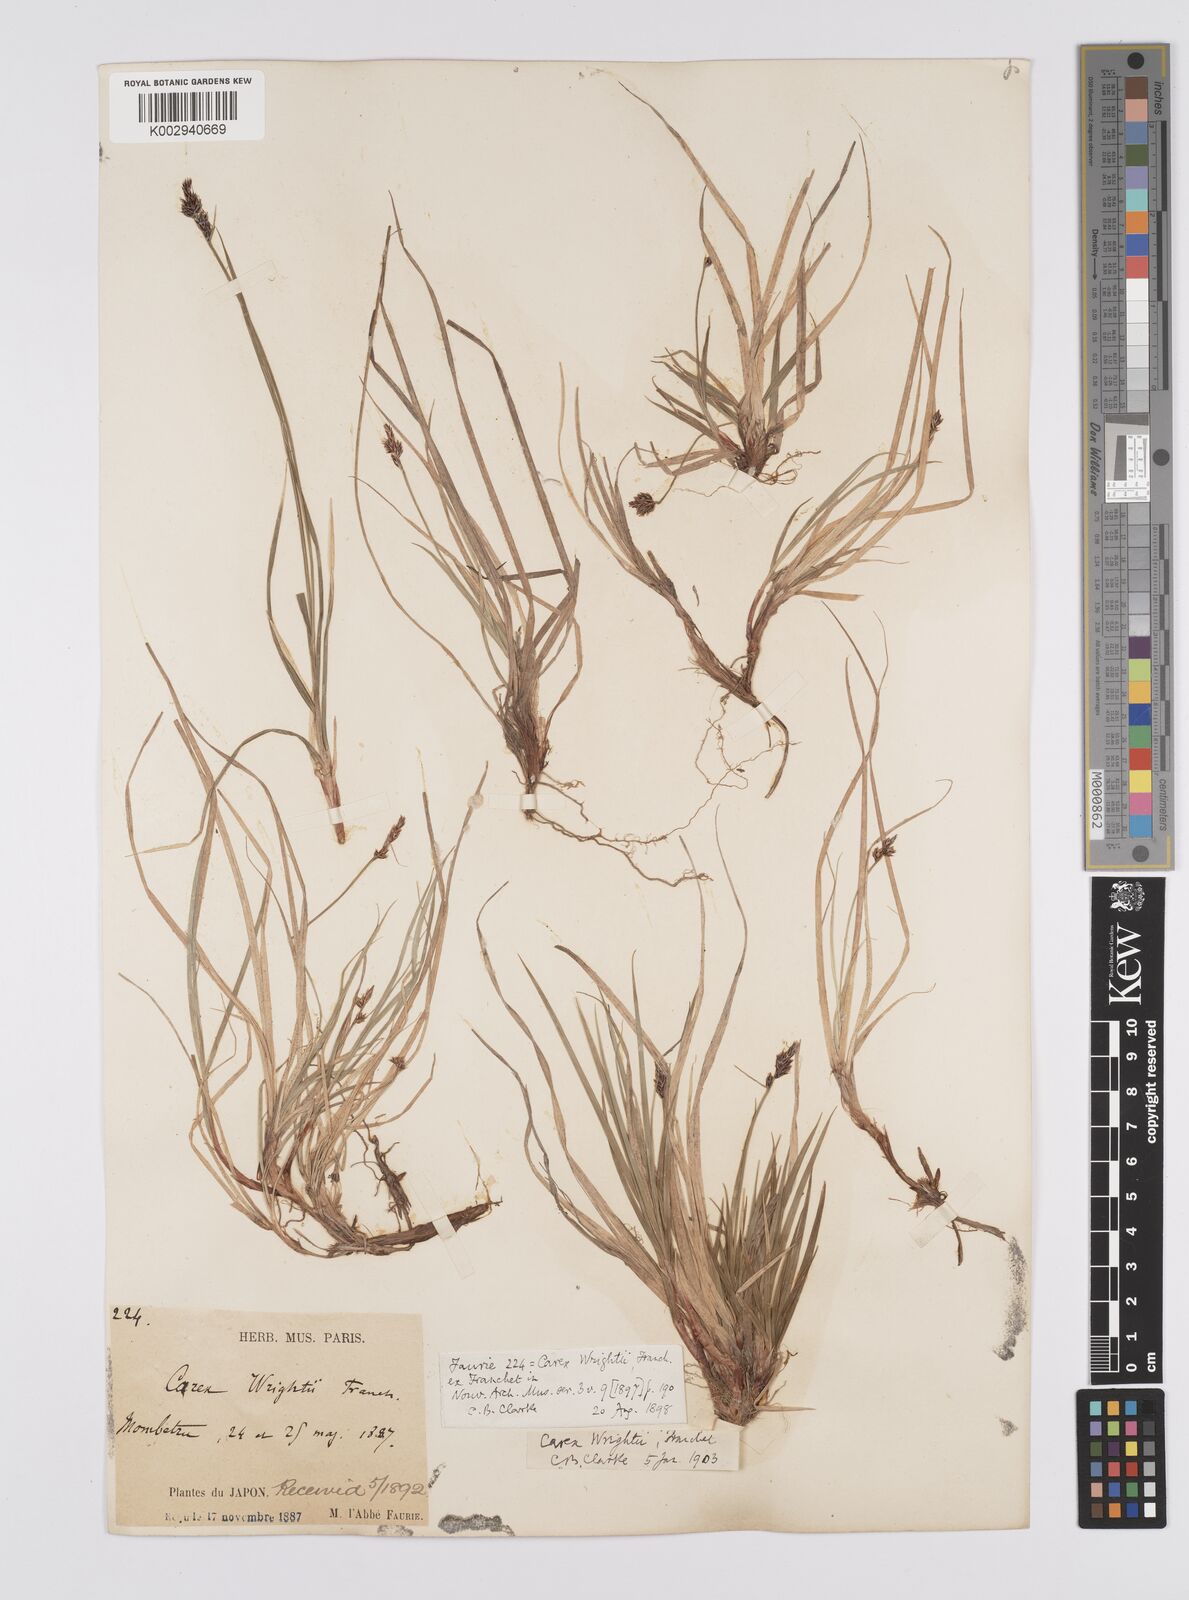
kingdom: Plantae
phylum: Tracheophyta
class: Liliopsida
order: Poales
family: Cyperaceae
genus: Carex
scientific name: Carex oxyandra
